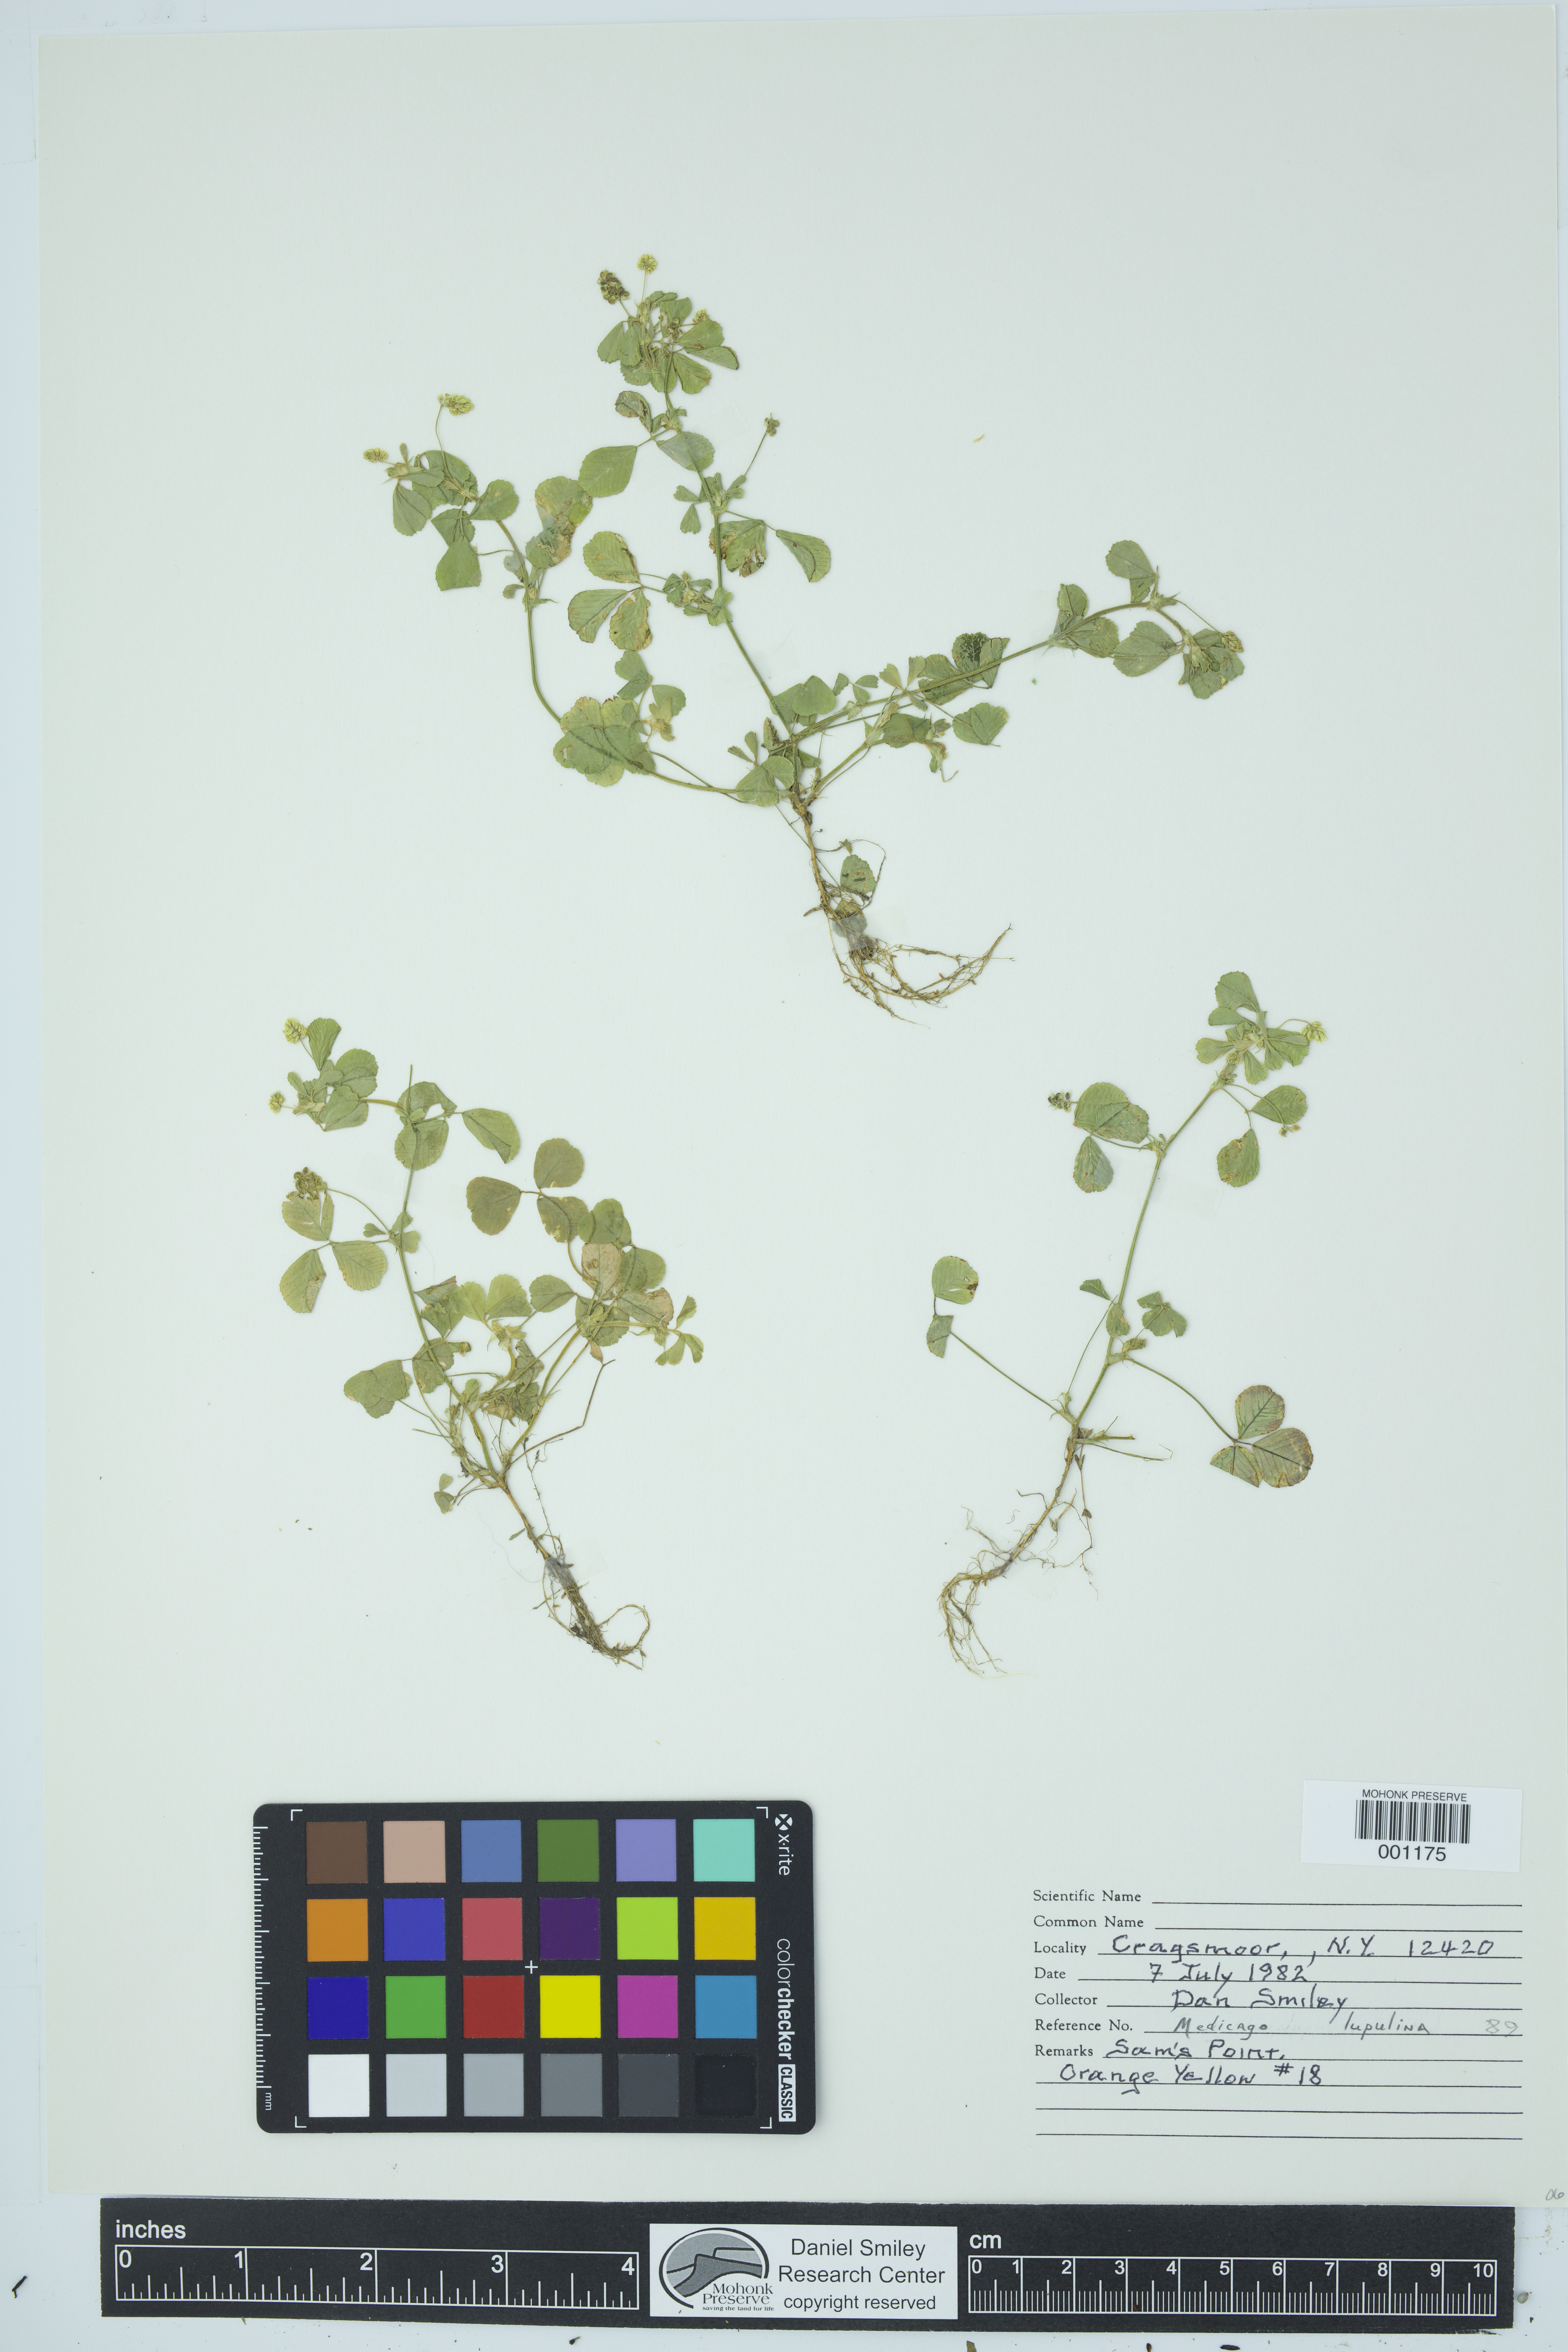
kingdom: Plantae
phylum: Tracheophyta
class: Magnoliopsida
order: Fabales
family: Fabaceae
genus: Medicago
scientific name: Medicago lupulina
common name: Black medick
